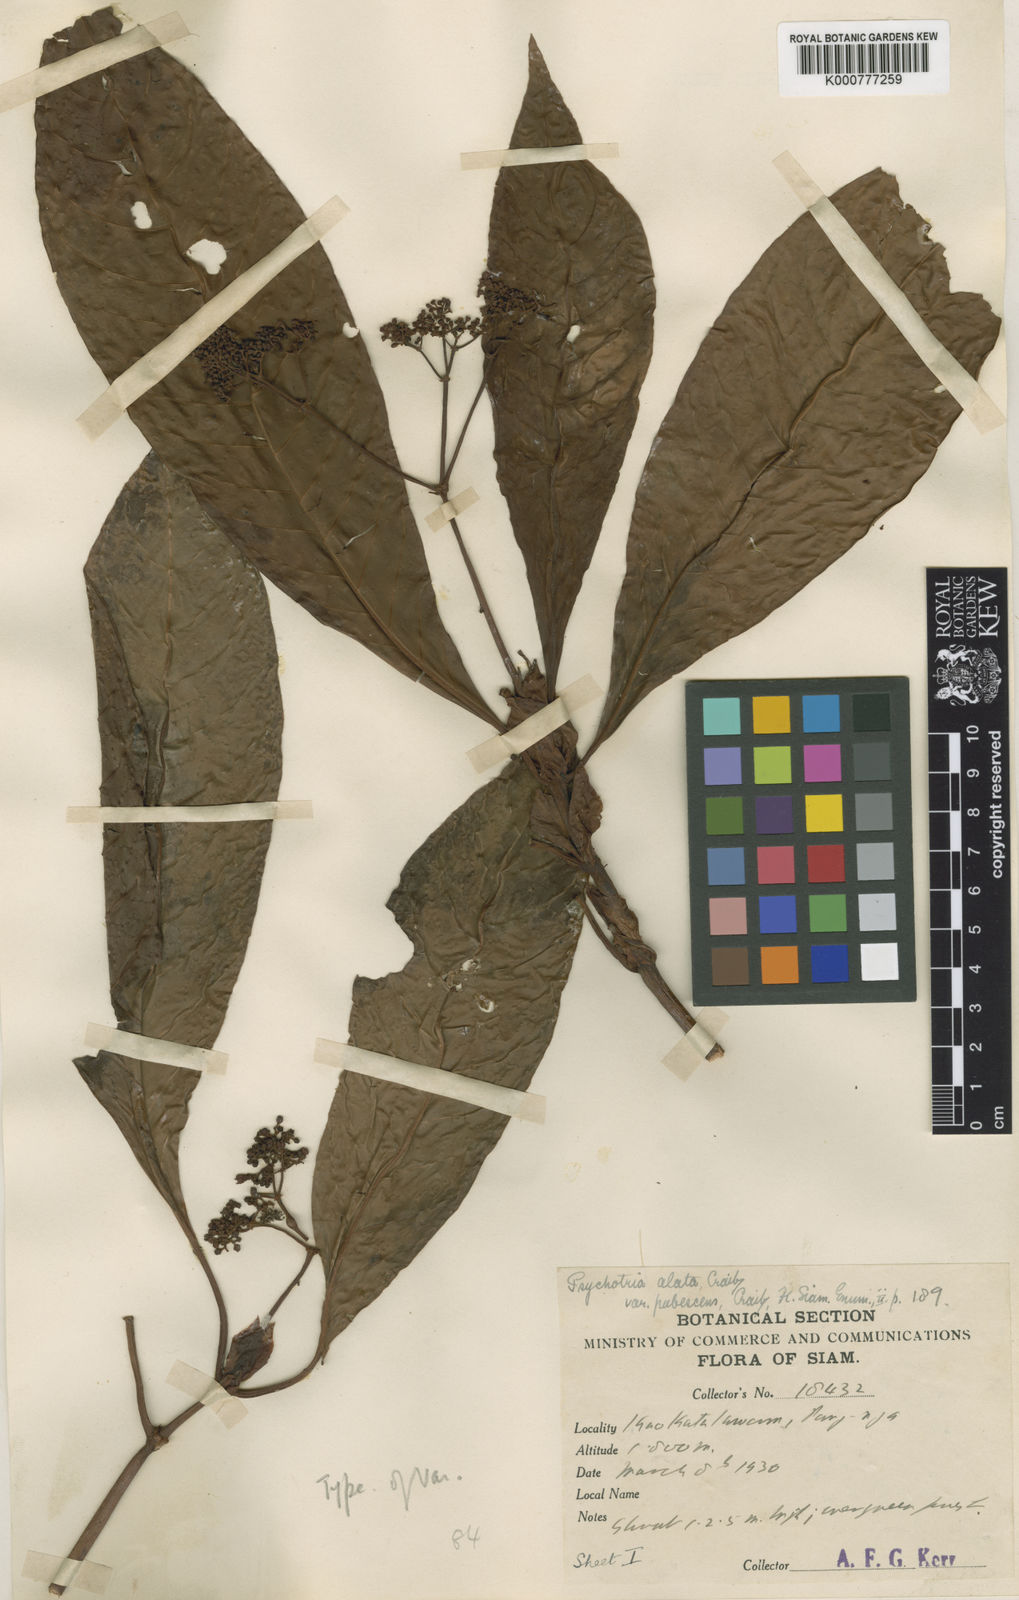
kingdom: Plantae
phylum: Tracheophyta
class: Magnoliopsida
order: Gentianales
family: Rubiaceae
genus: Psychotria
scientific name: Psychotria fuscescens
